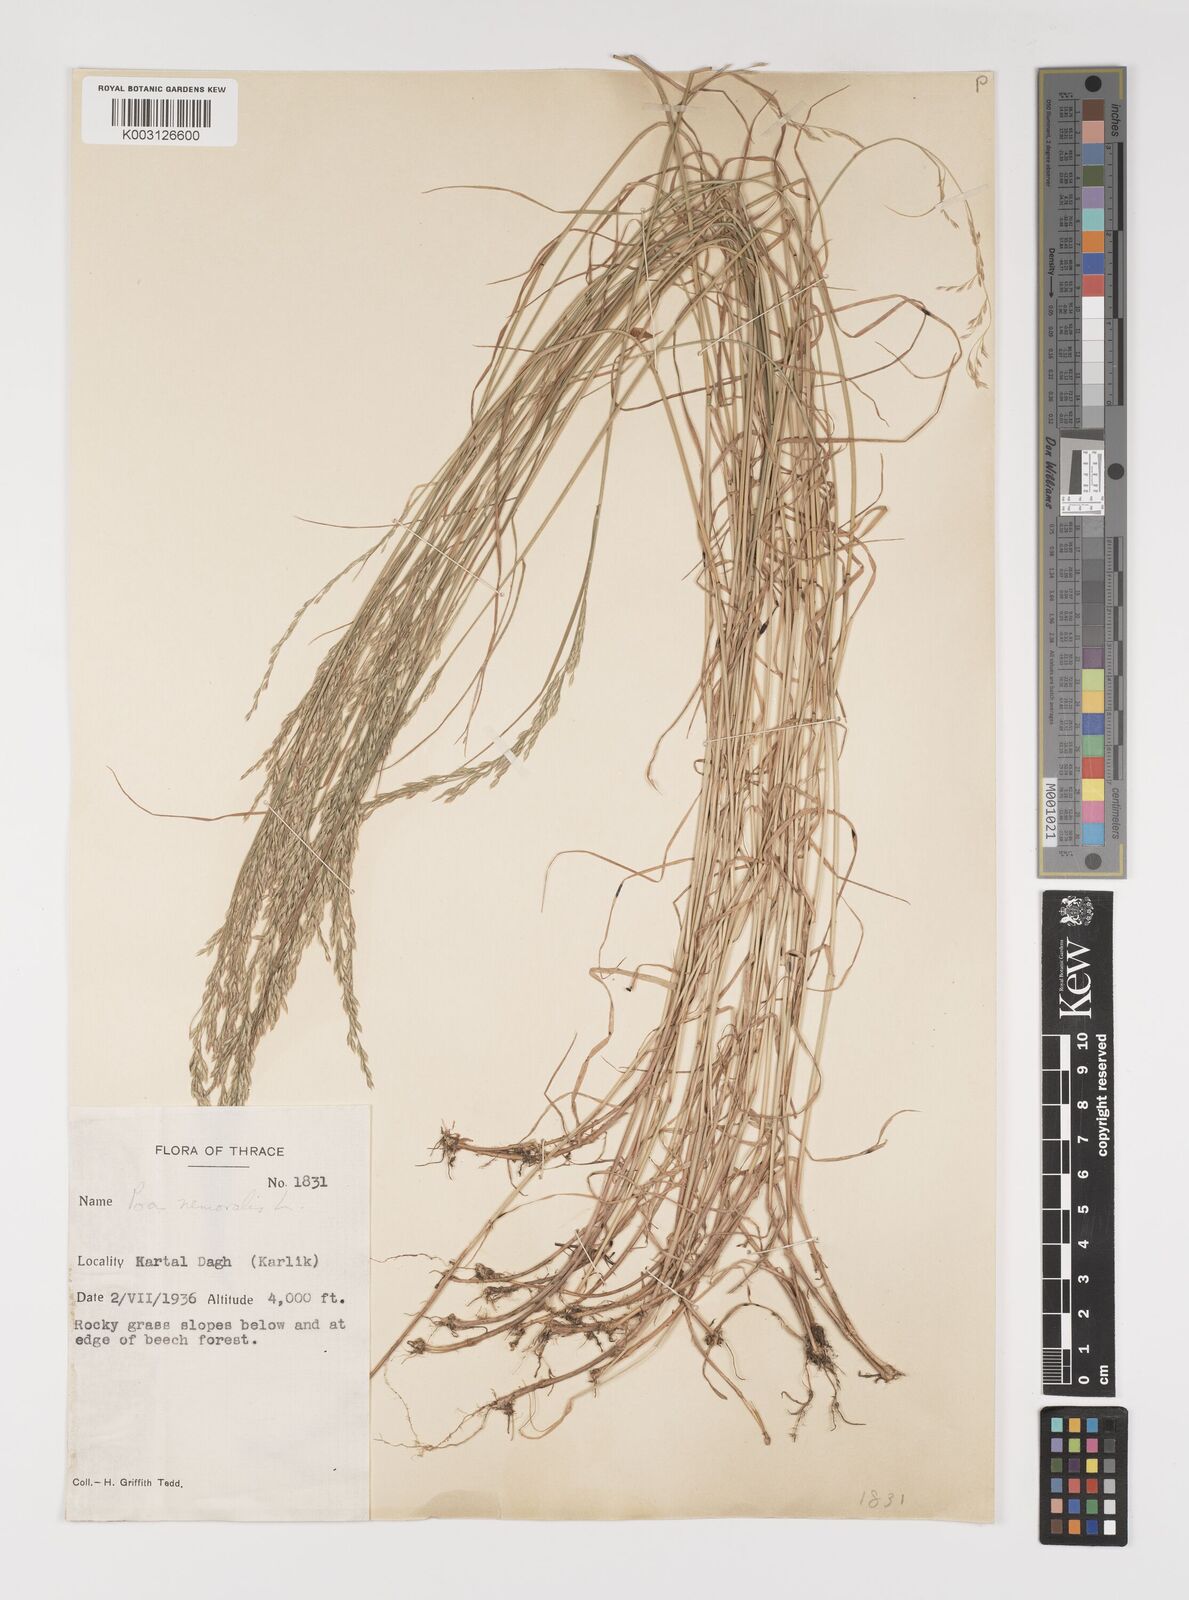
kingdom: Plantae
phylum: Tracheophyta
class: Liliopsida
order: Poales
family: Poaceae
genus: Poa
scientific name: Poa nemoralis
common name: Wood bluegrass
